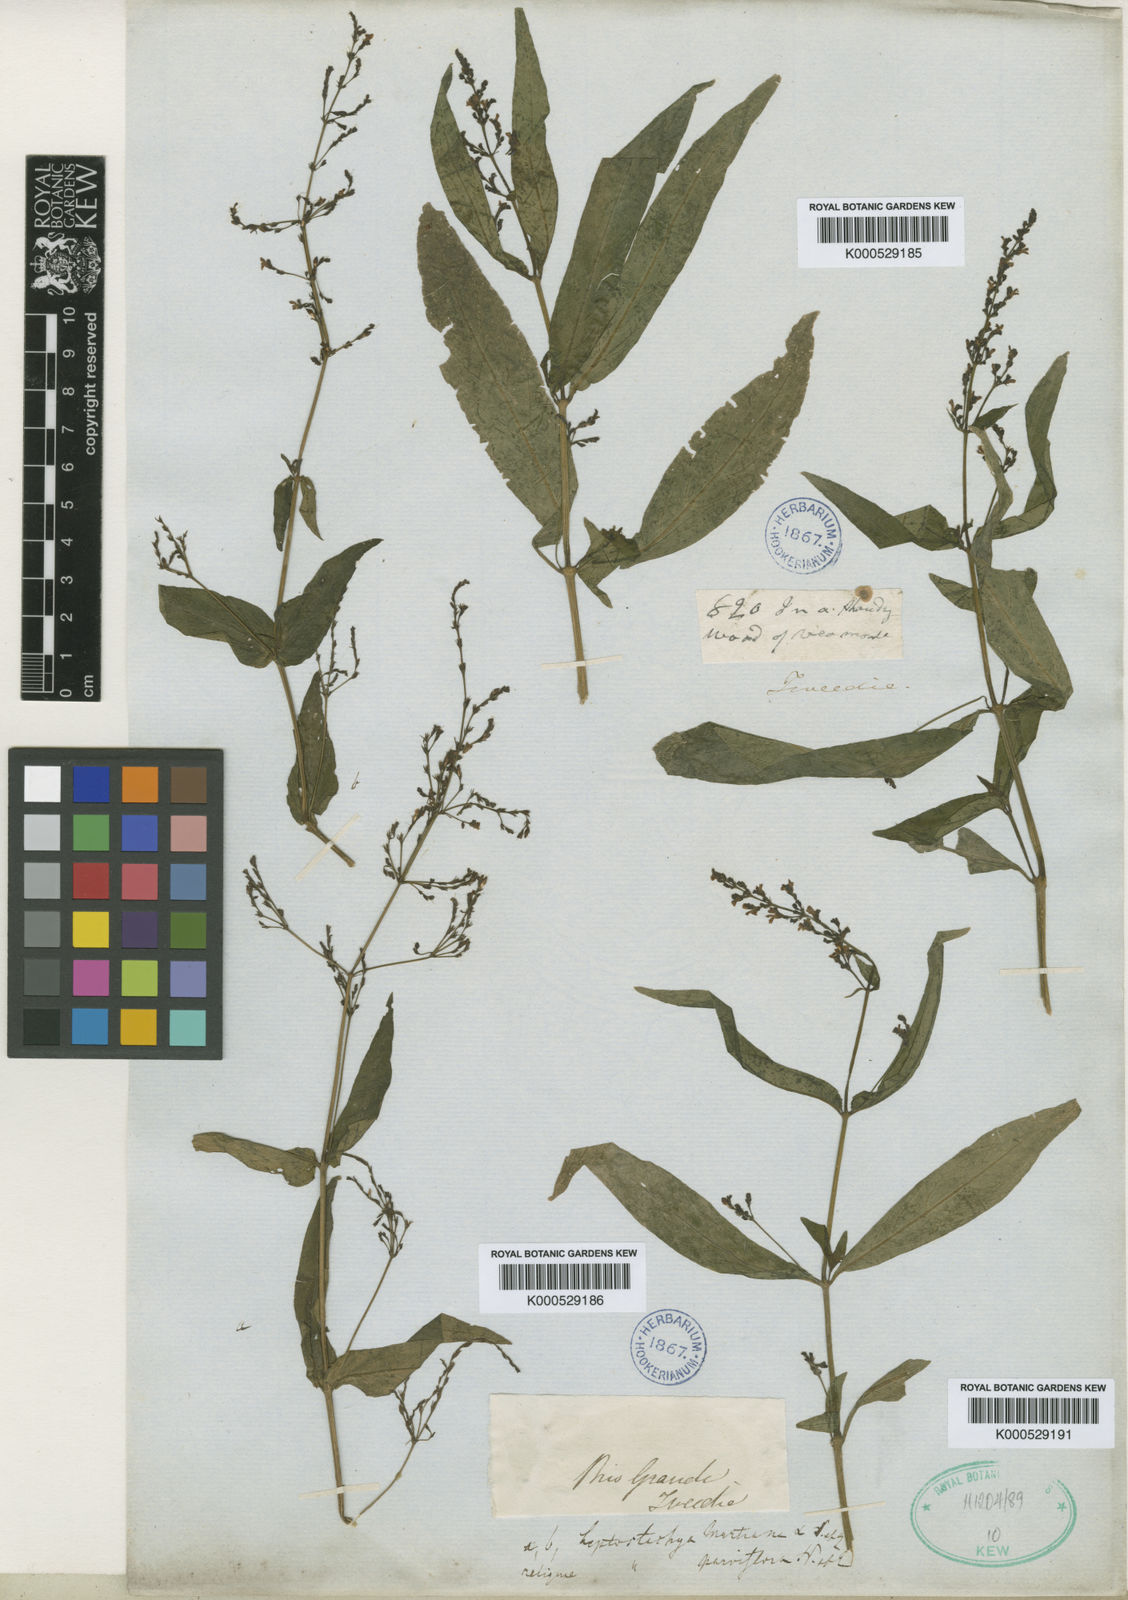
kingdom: Plantae
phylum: Tracheophyta
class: Magnoliopsida
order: Lamiales
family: Acanthaceae
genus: Dianthera
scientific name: Dianthera comata
